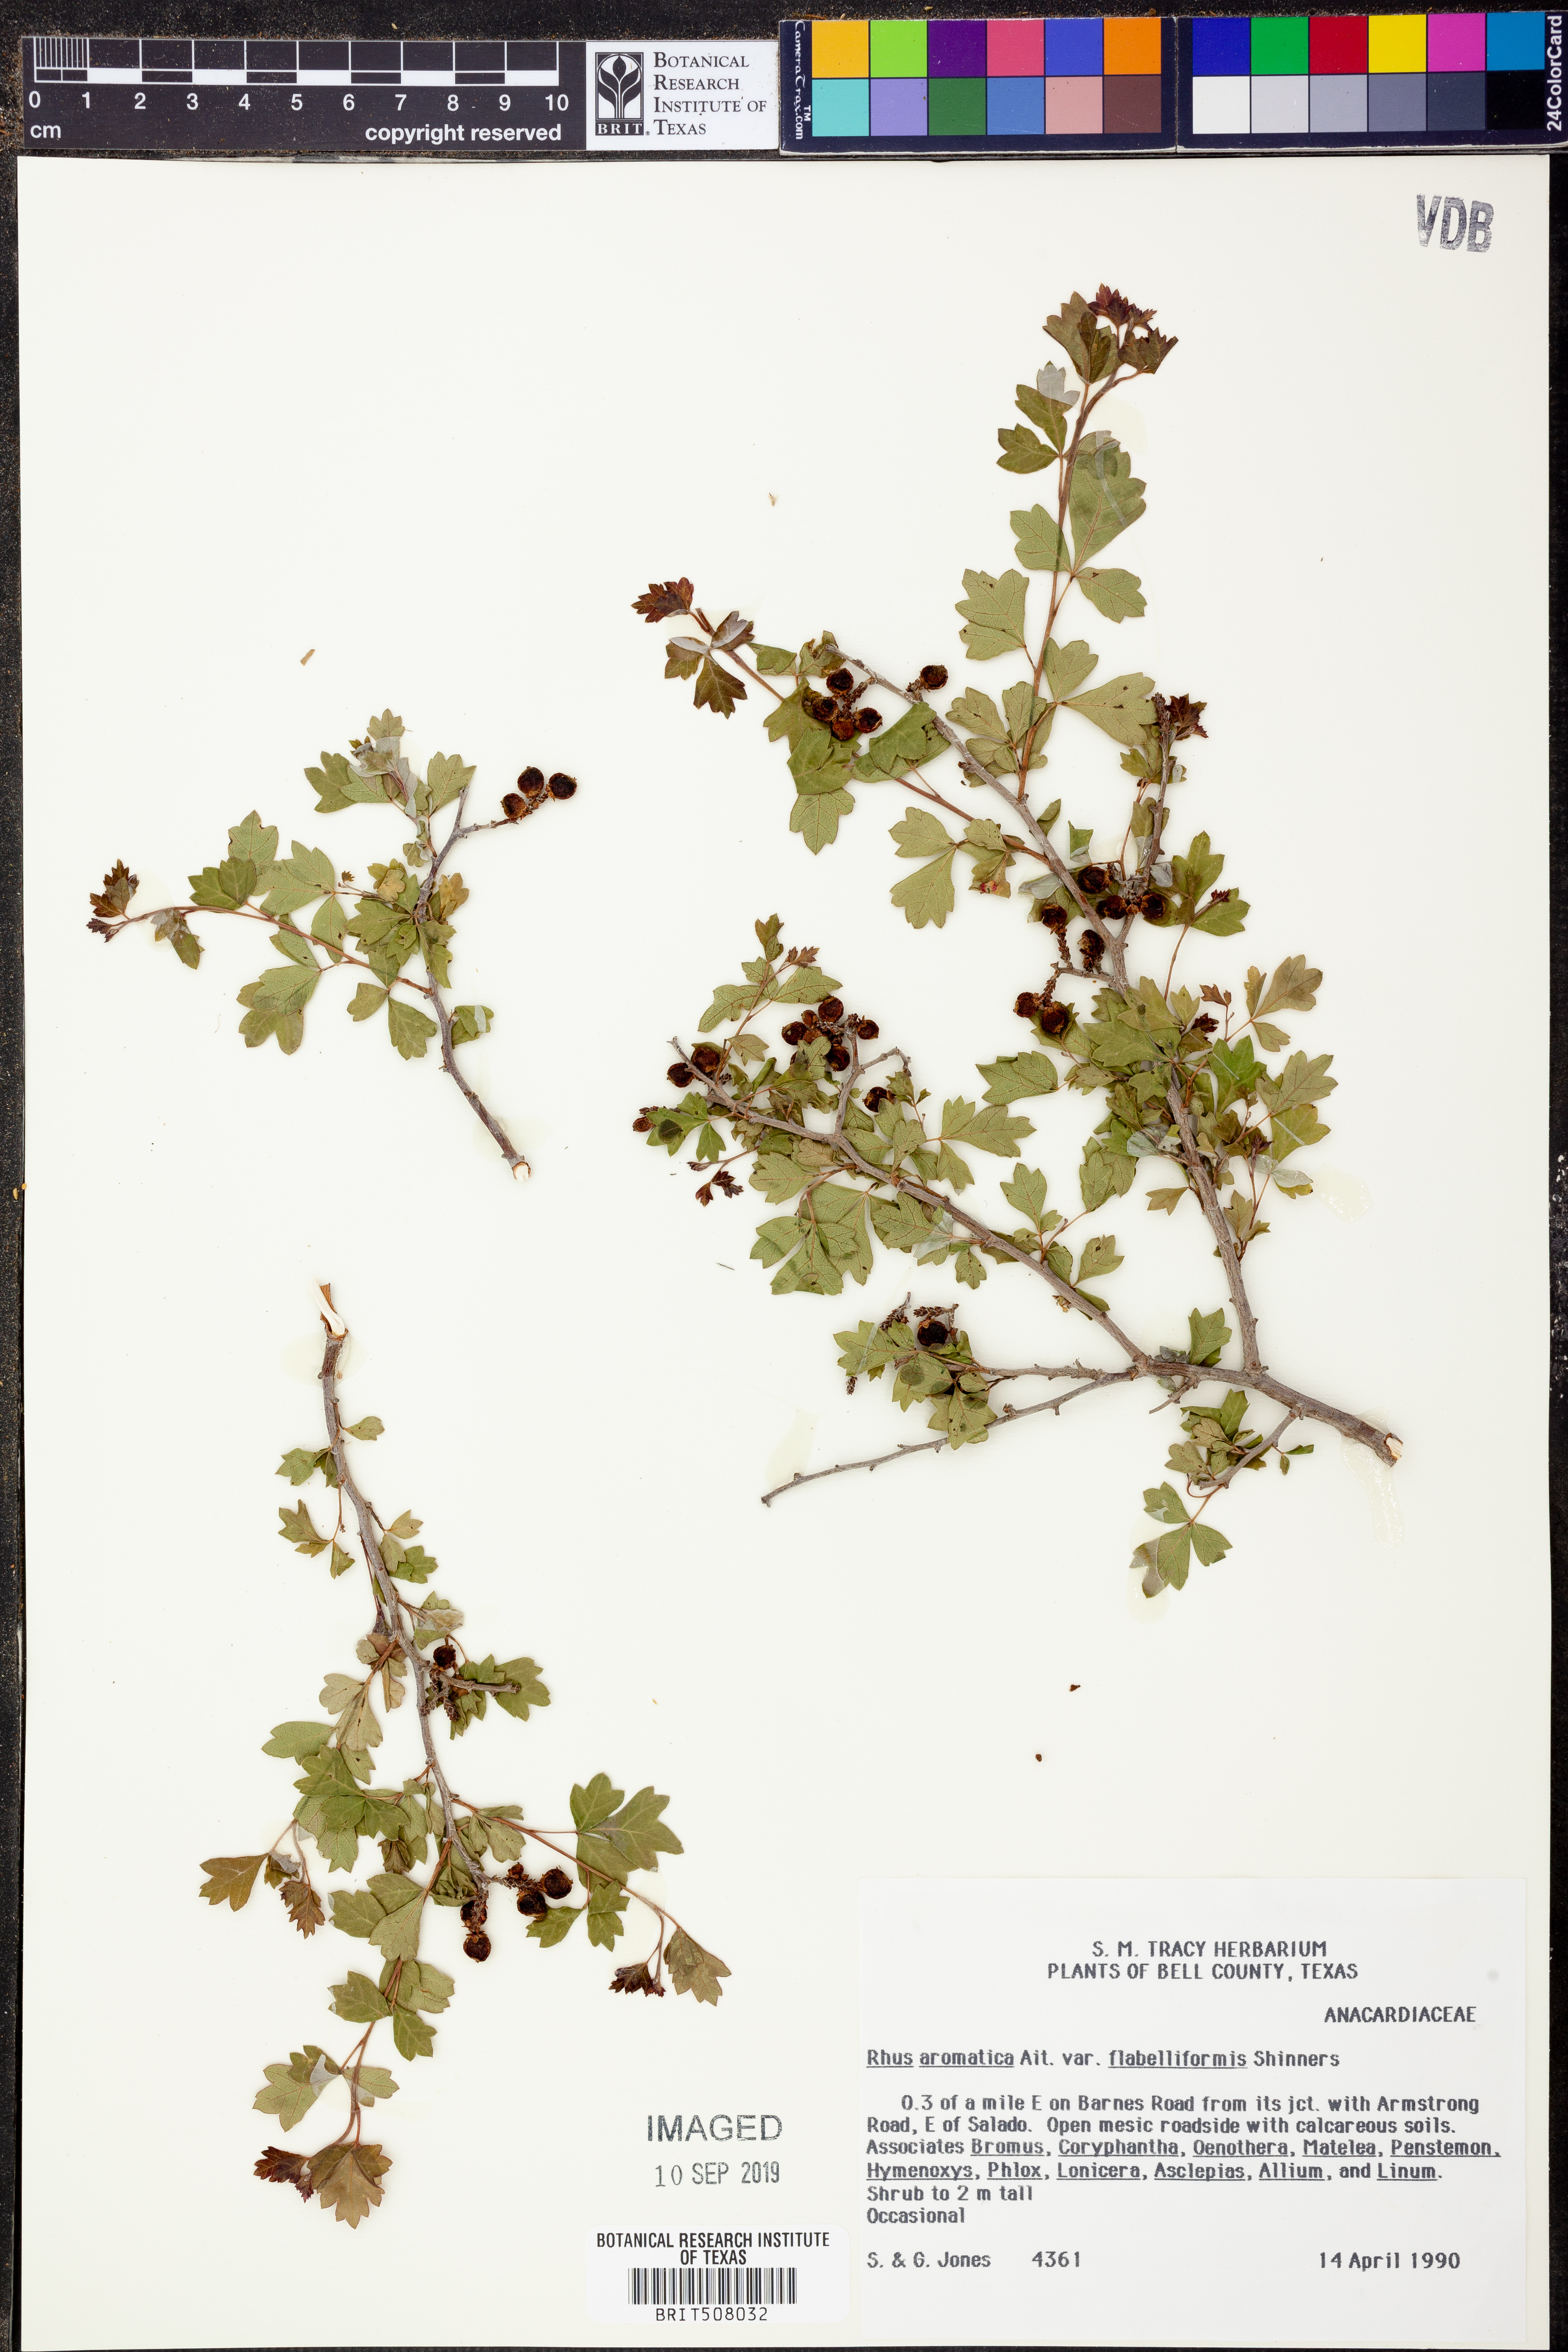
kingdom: Plantae
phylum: Tracheophyta
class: Magnoliopsida
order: Sapindales
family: Anacardiaceae
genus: Rhus
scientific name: Rhus trilobata
